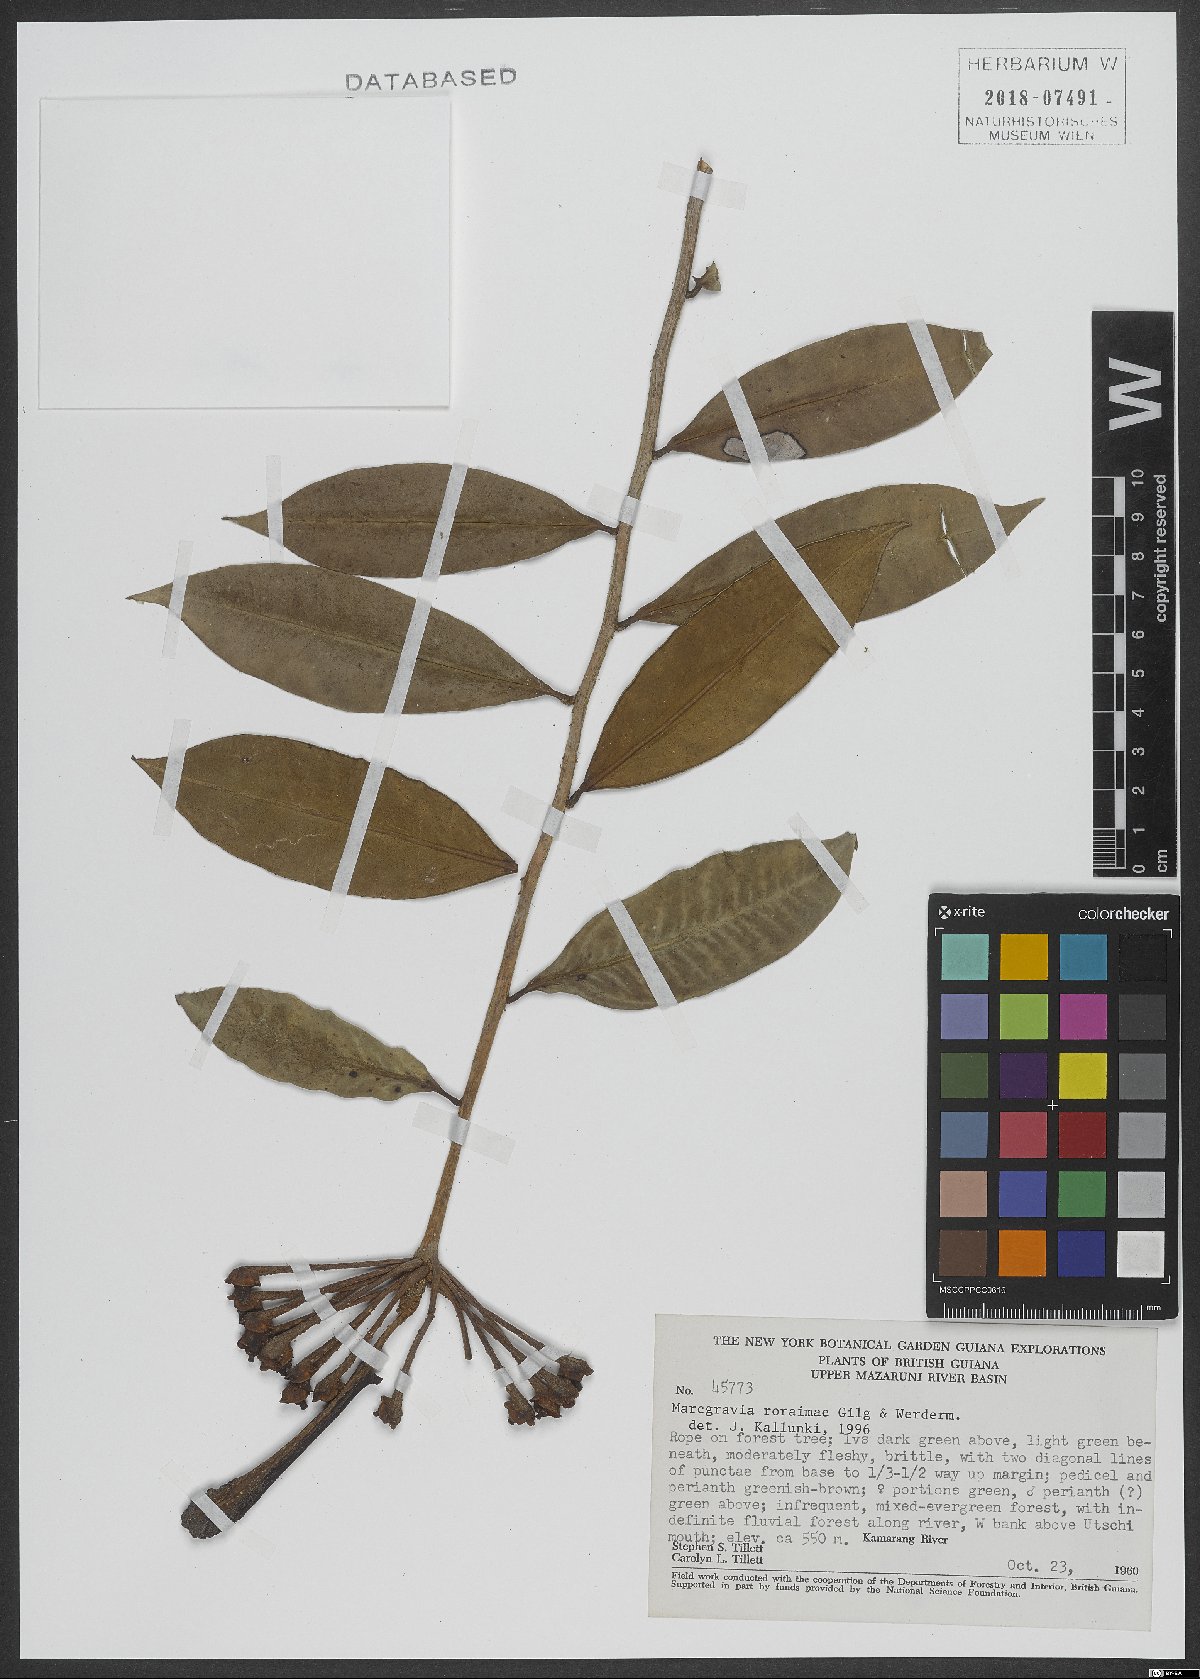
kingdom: Plantae
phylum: Tracheophyta
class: Magnoliopsida
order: Ericales
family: Marcgraviaceae
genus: Marcgravia
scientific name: Marcgravia roraimae
